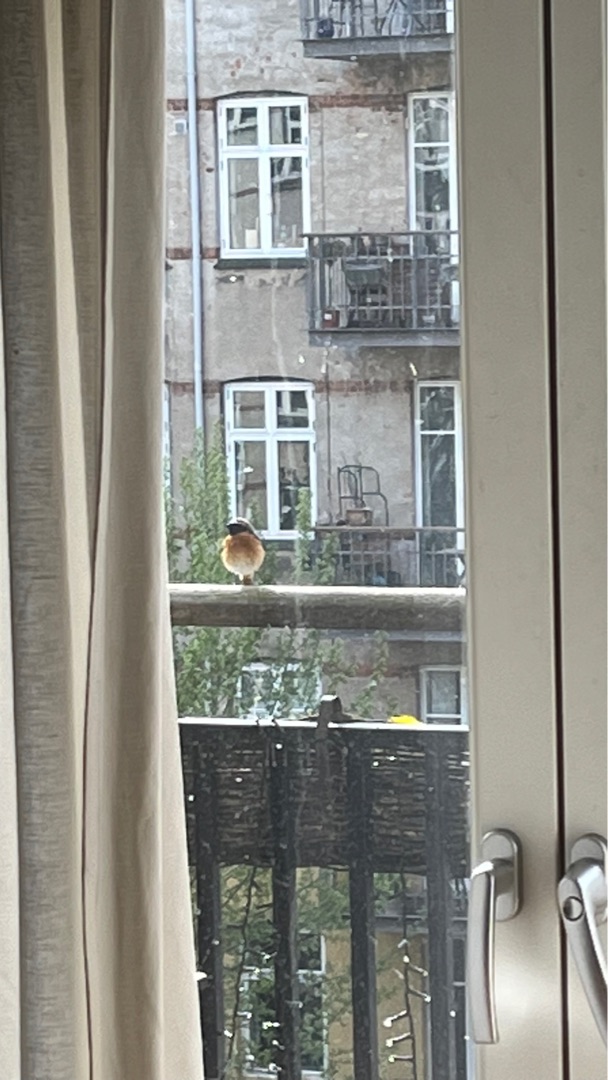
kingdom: Animalia
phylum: Chordata
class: Aves
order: Passeriformes
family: Muscicapidae
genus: Phoenicurus
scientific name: Phoenicurus phoenicurus
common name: Rødstjert
